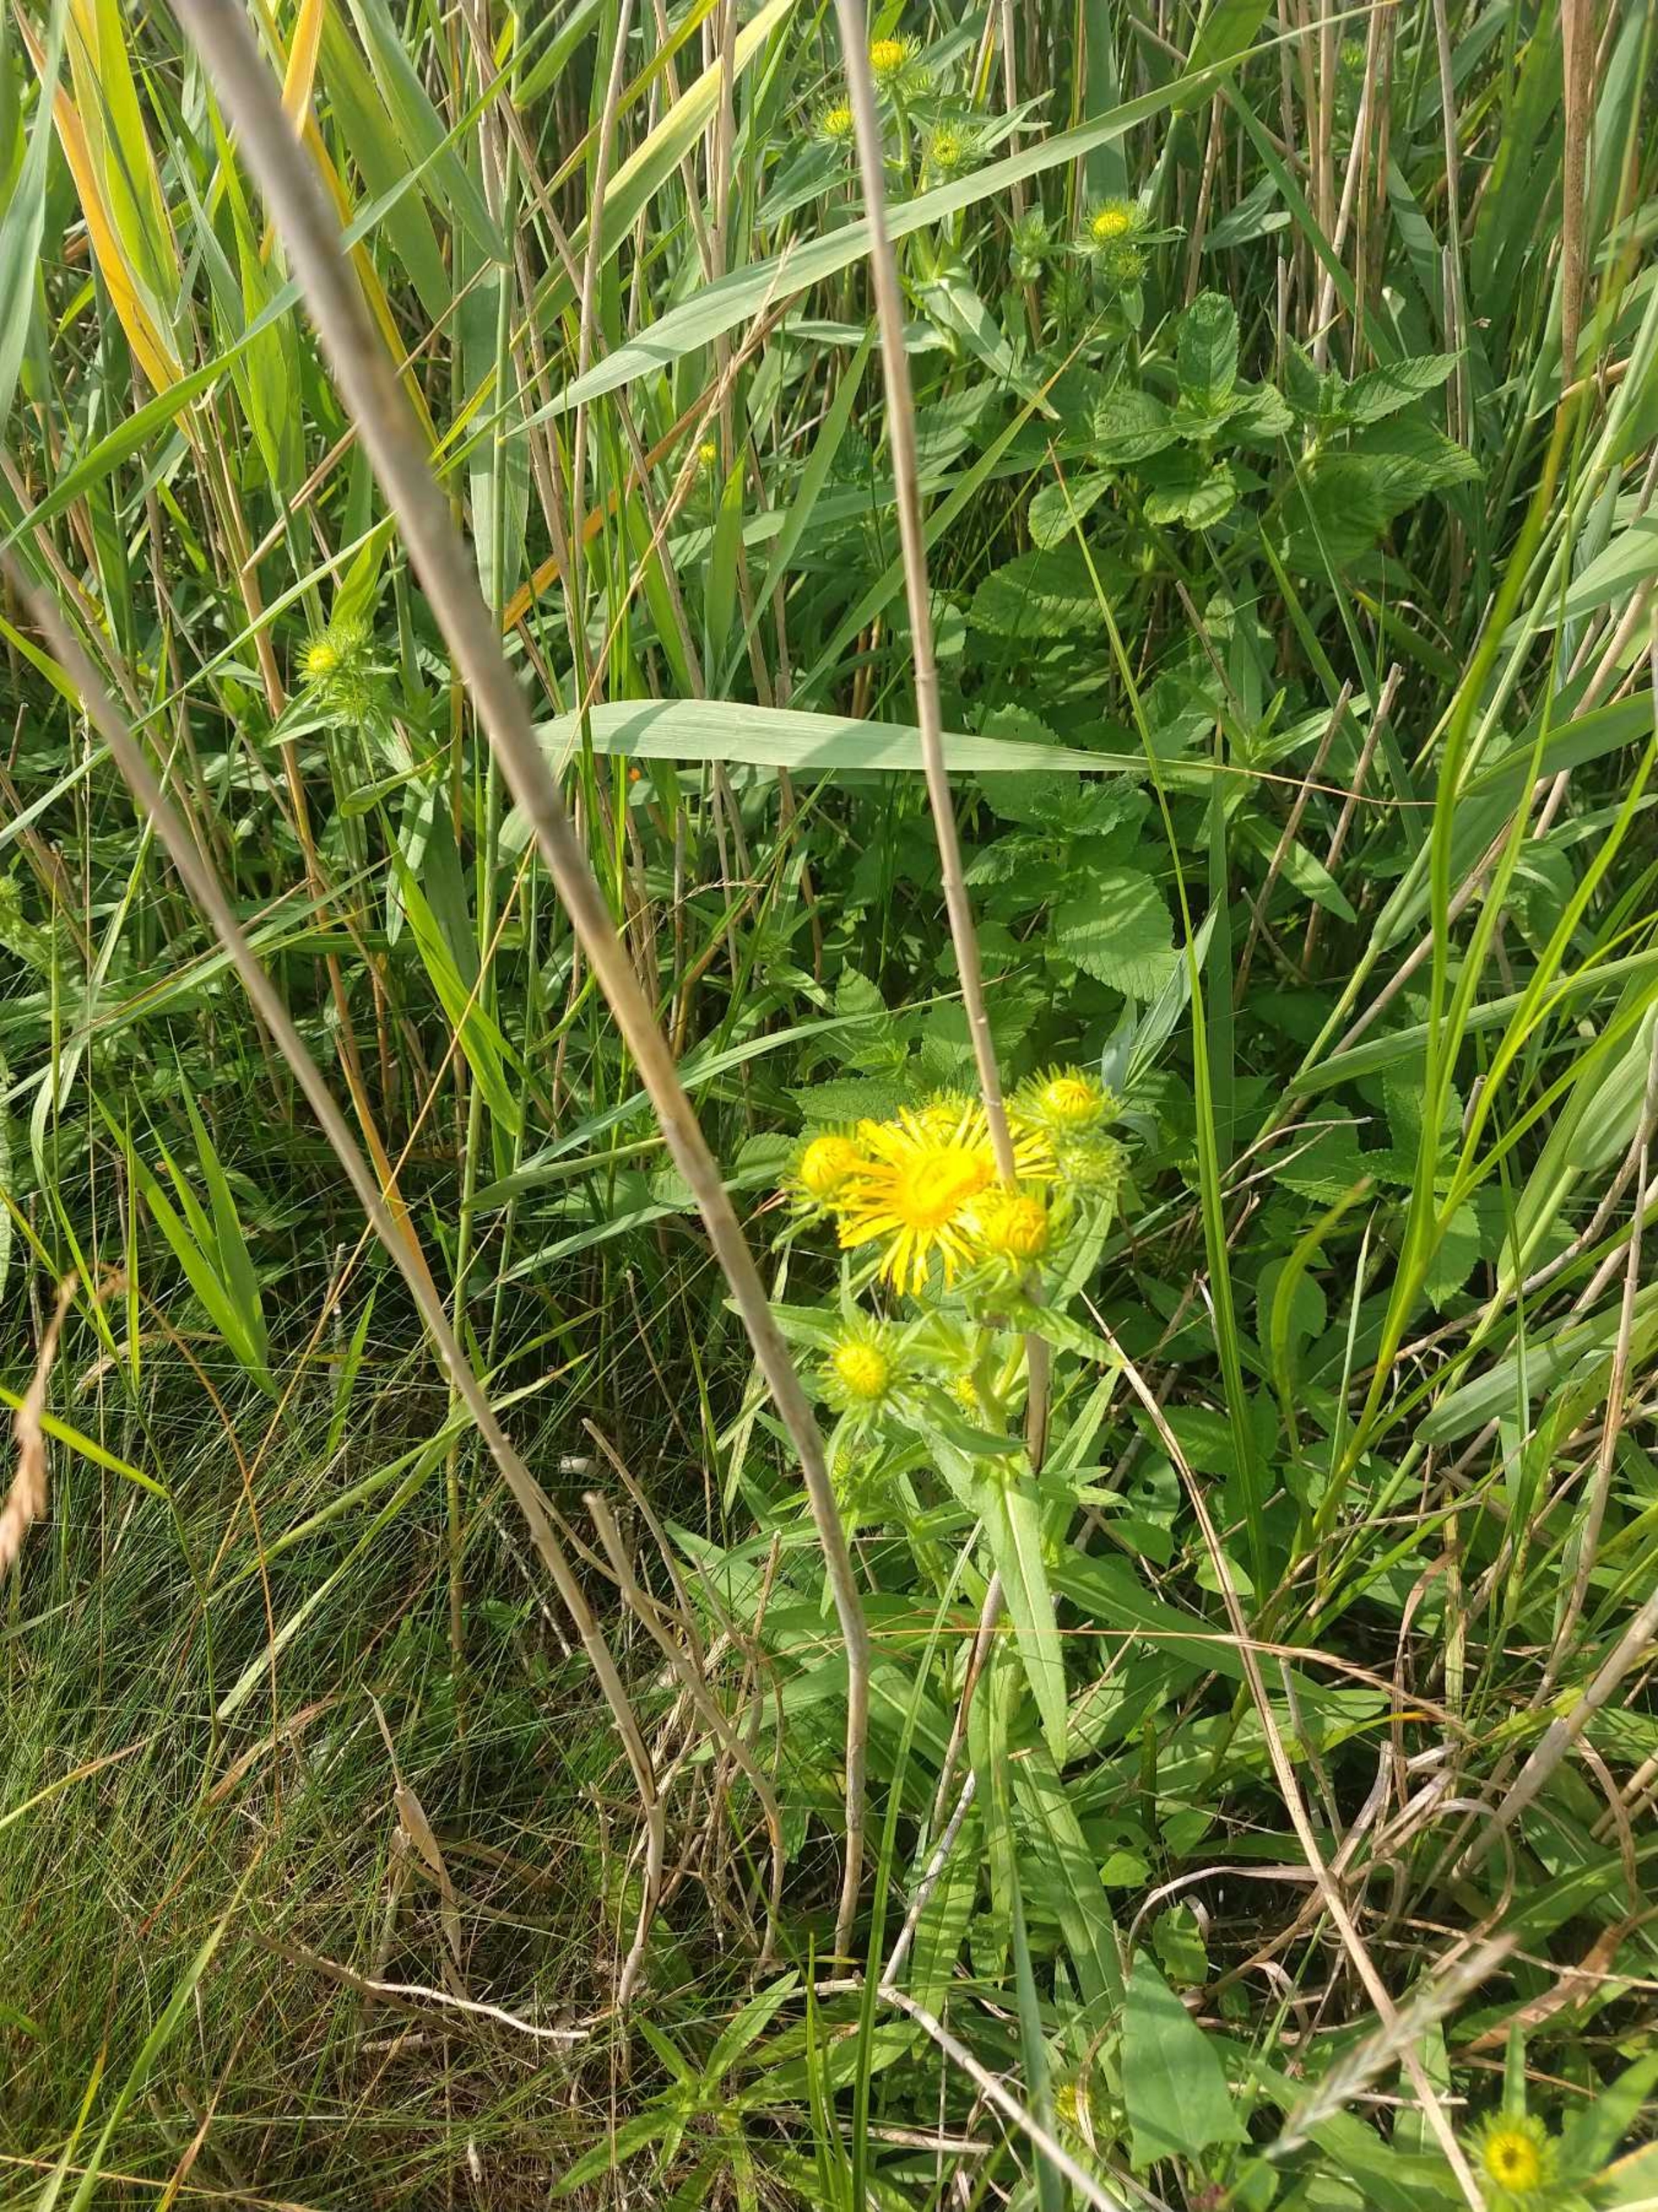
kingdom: Plantae
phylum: Tracheophyta
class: Magnoliopsida
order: Asterales
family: Asteraceae
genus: Pentanema
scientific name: Pentanema britannicum
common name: Soløje-alant
